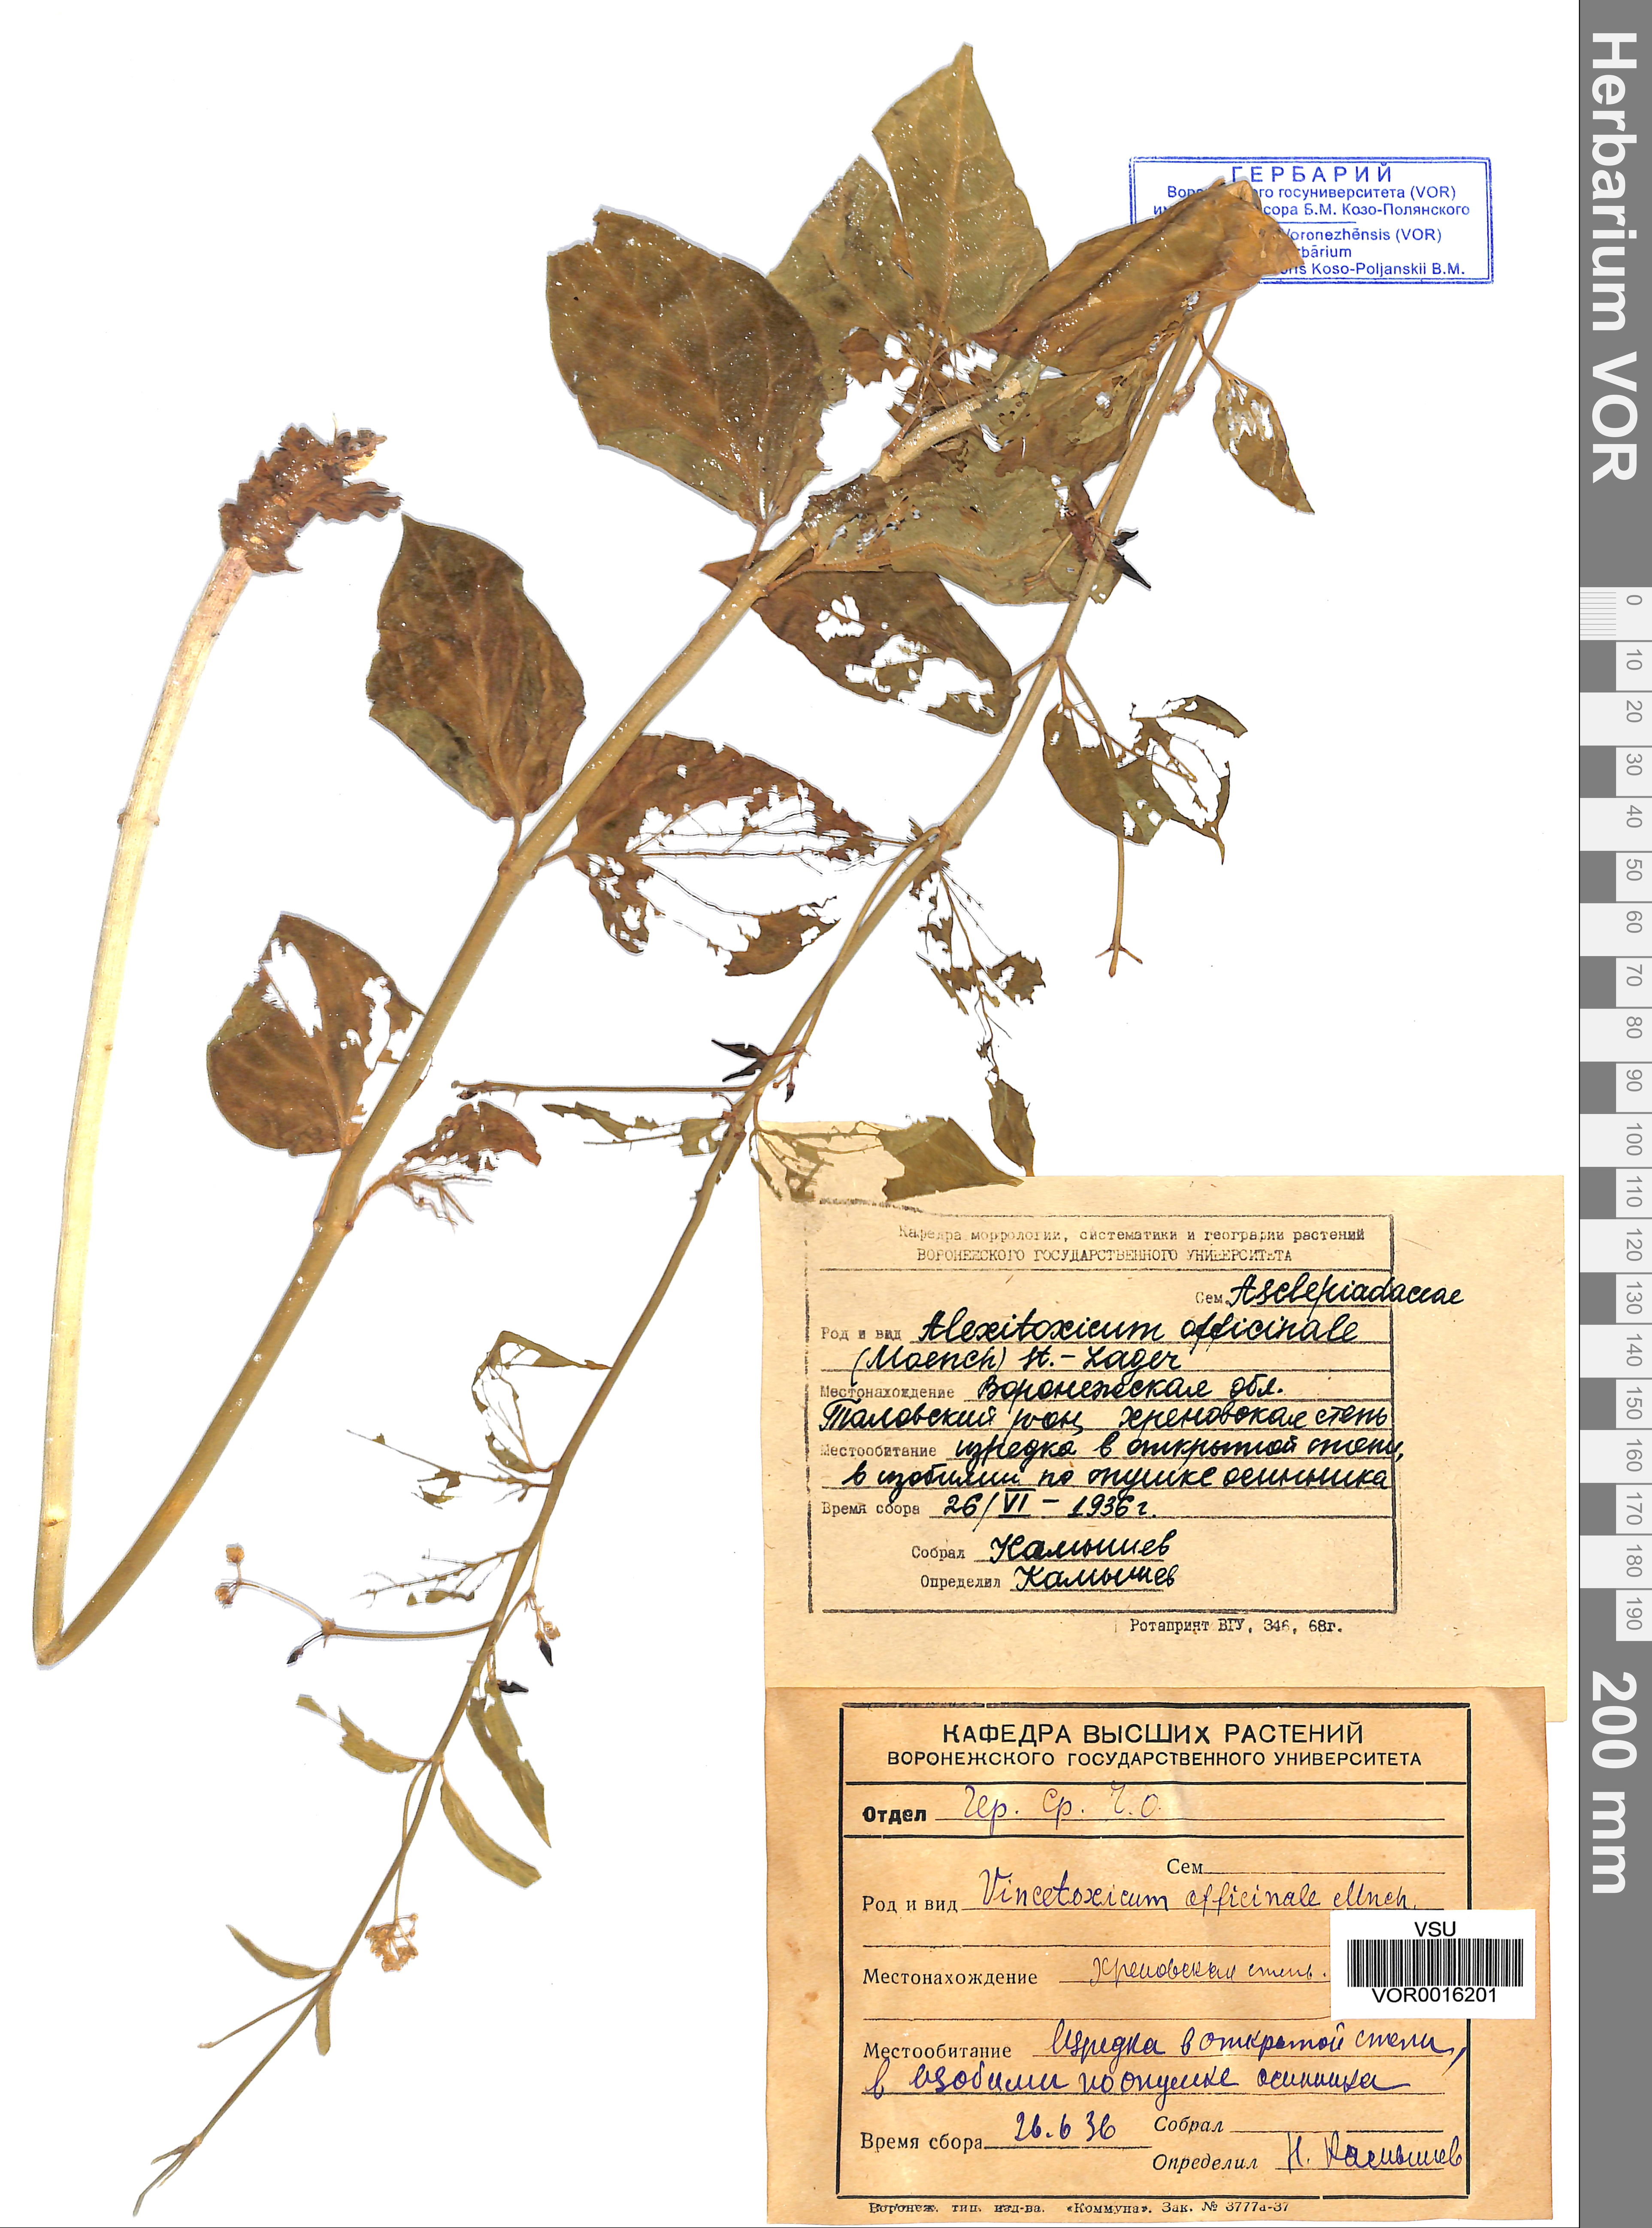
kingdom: Plantae
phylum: Tracheophyta
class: Magnoliopsida
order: Gentianales
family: Apocynaceae
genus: Vincetoxicum
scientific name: Vincetoxicum hirundinaria
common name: White swallowwort
